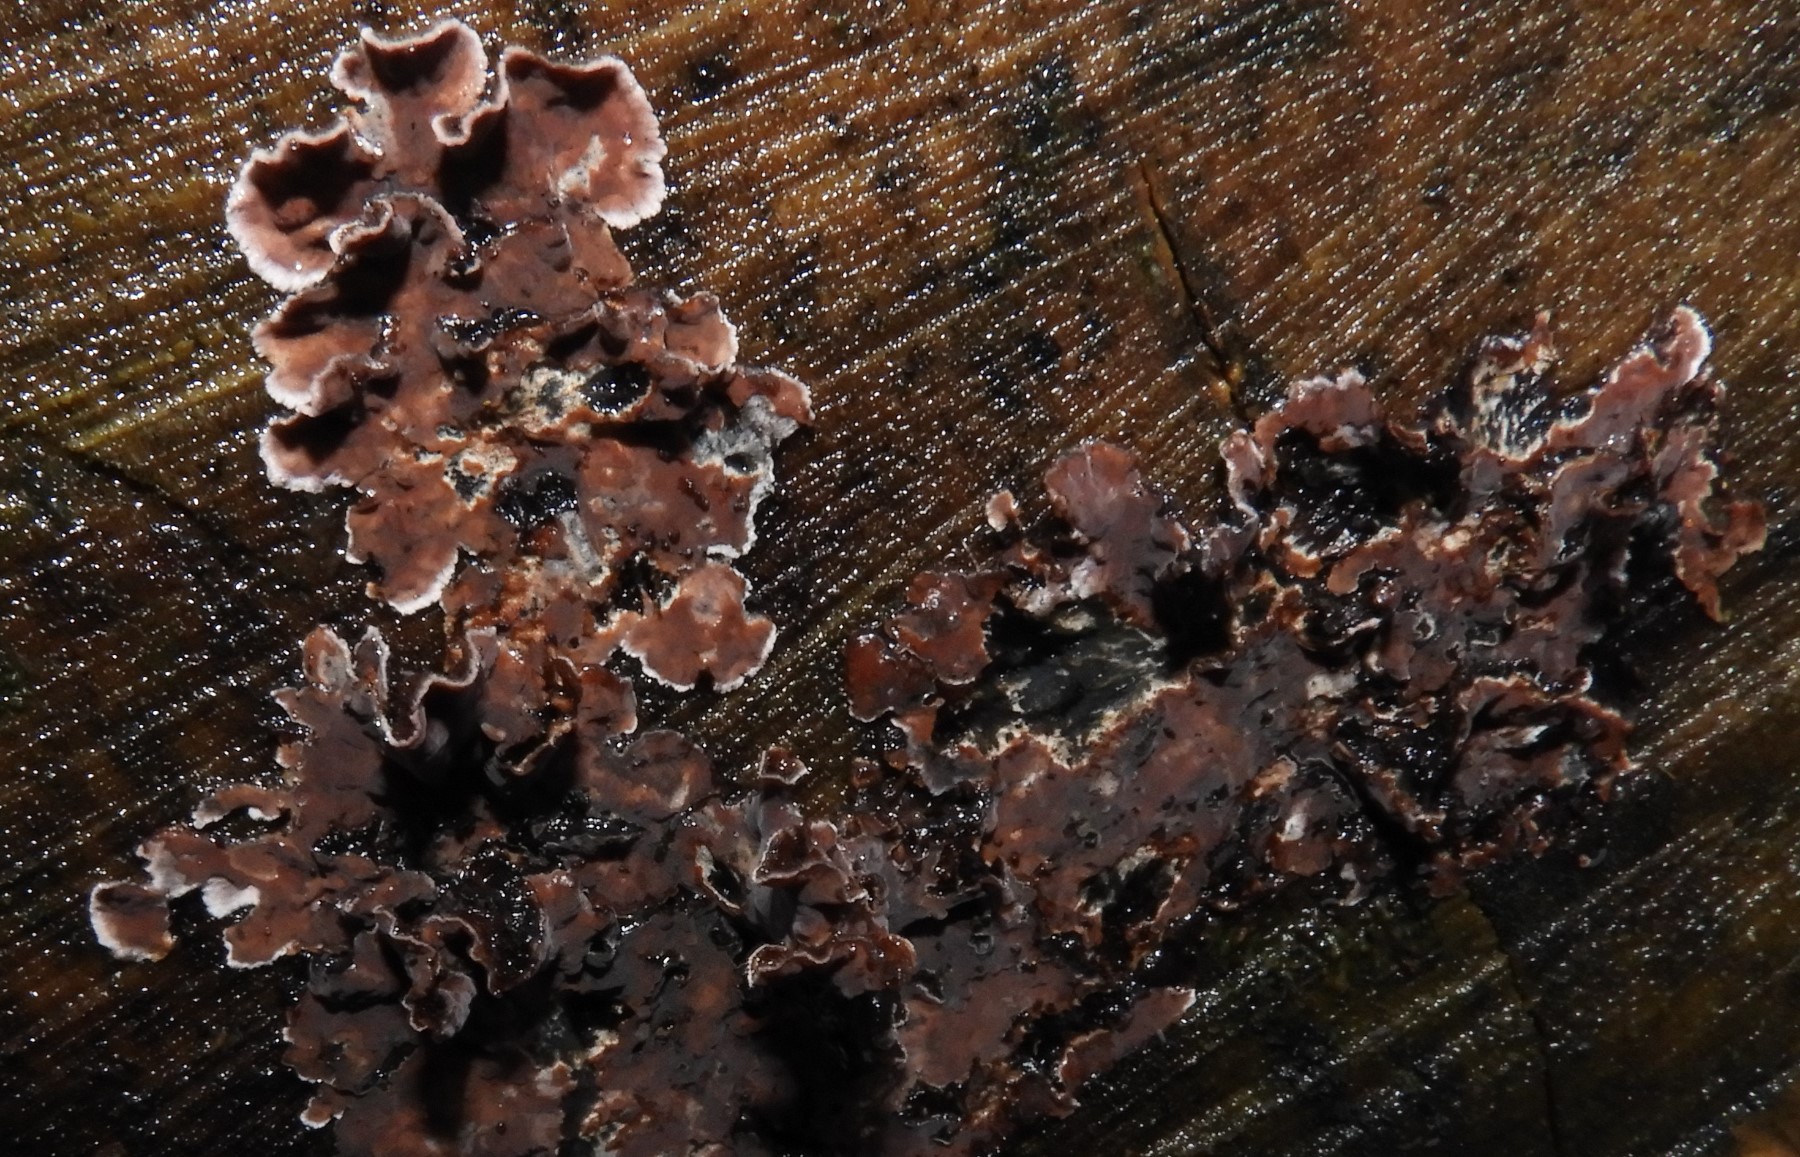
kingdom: Fungi
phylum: Basidiomycota
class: Agaricomycetes
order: Agaricales
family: Cyphellaceae
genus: Chondrostereum
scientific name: Chondrostereum purpureum
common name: purpurlædersvamp
